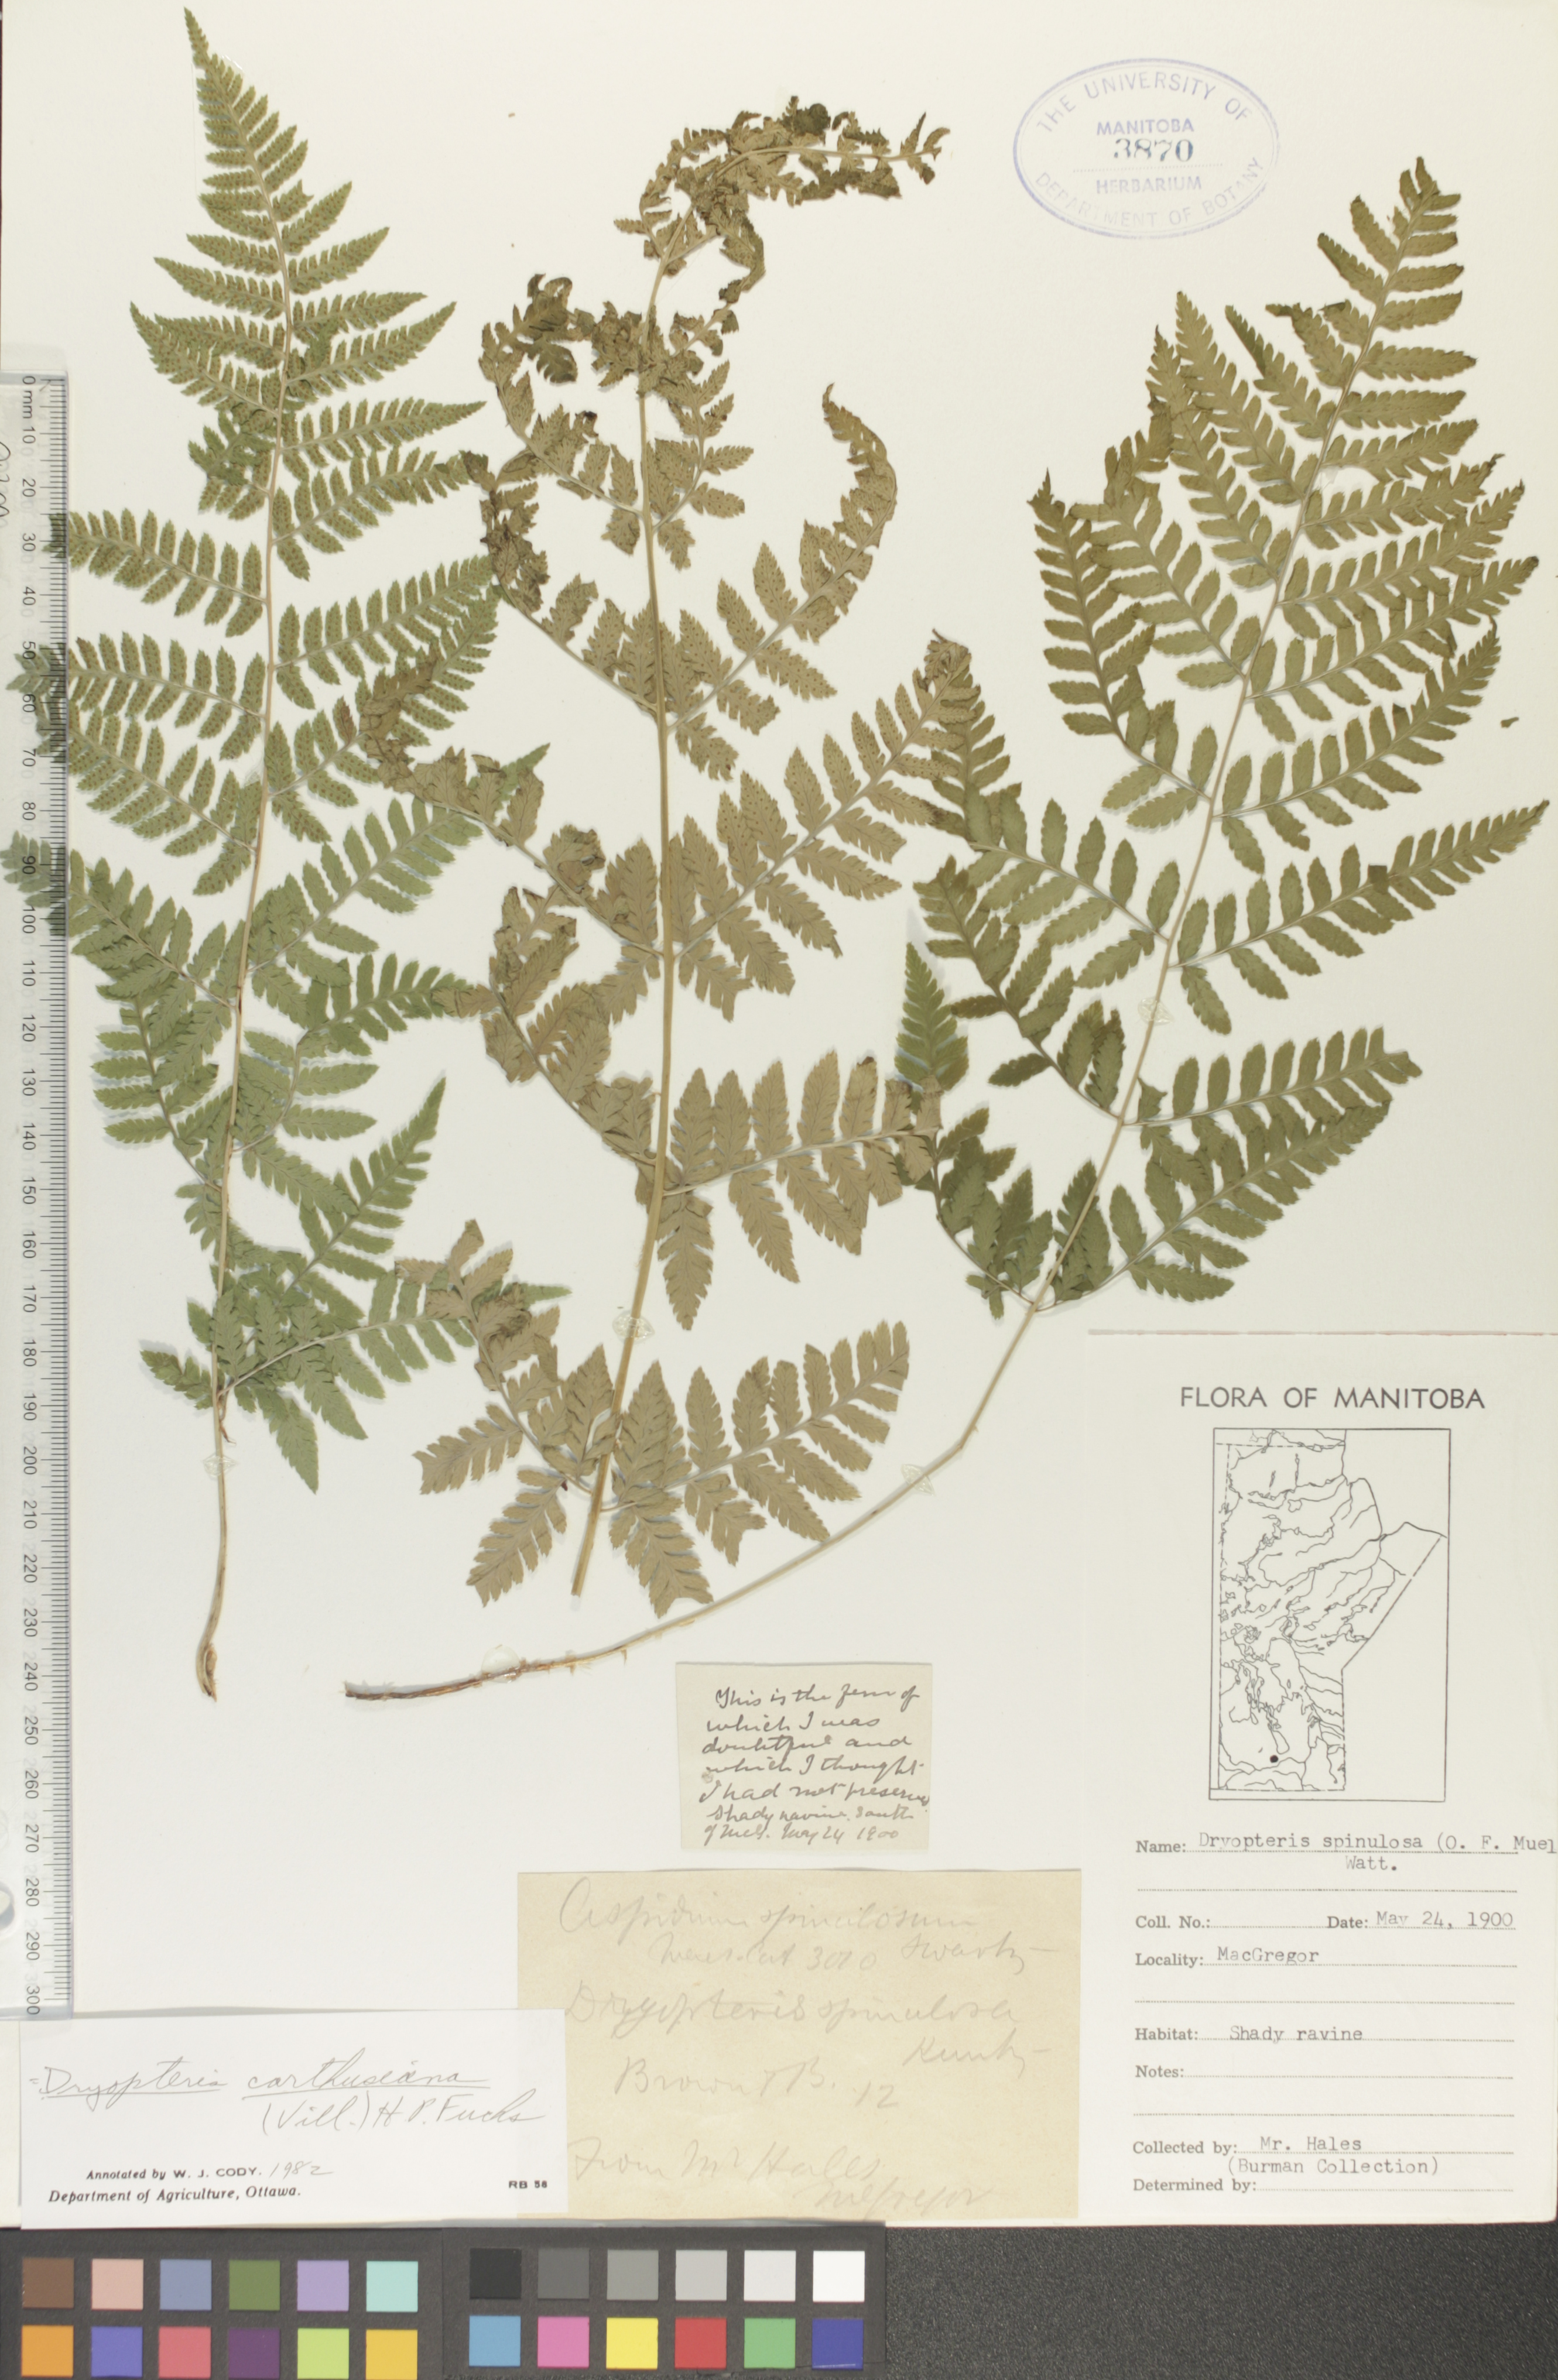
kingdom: Plantae
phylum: Tracheophyta
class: Polypodiopsida
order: Polypodiales
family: Dryopteridaceae
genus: Dryopteris
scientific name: Dryopteris carthusiana
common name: Narrow buckler-fern
